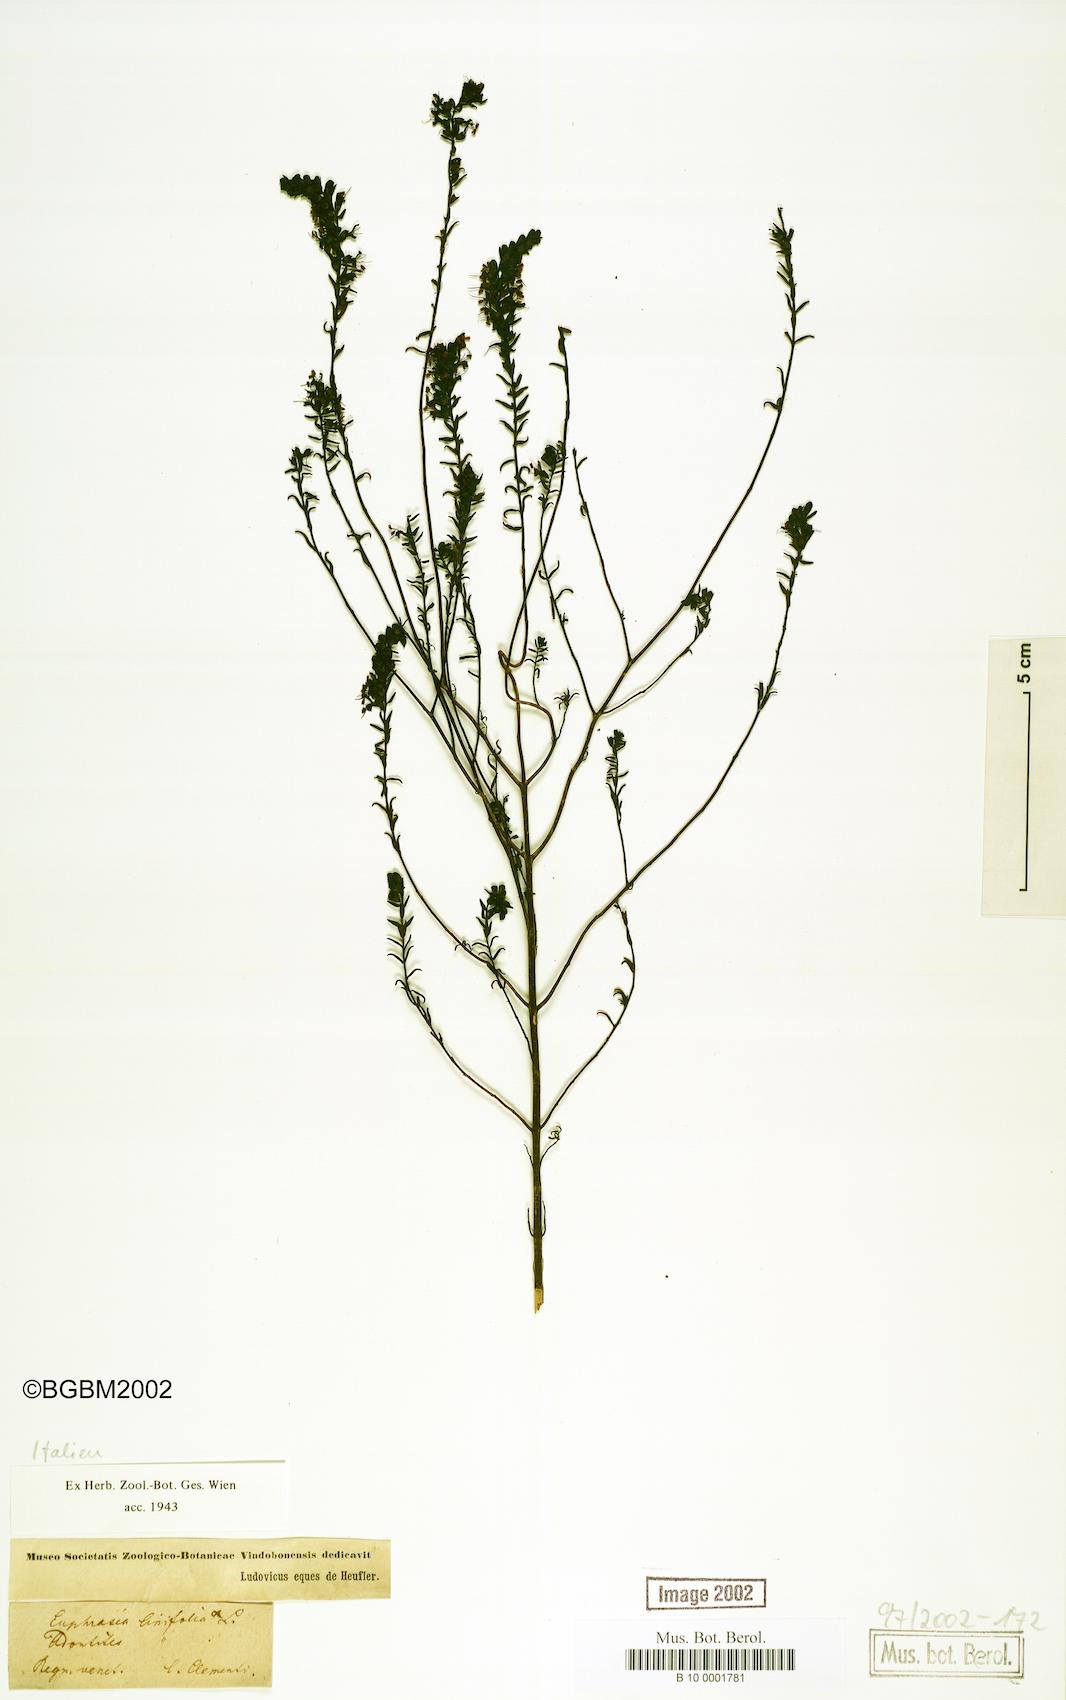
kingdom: Plantae
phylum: Tracheophyta
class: Magnoliopsida
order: Lamiales
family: Orobanchaceae
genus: Euphrasia
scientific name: Euphrasia trifida
